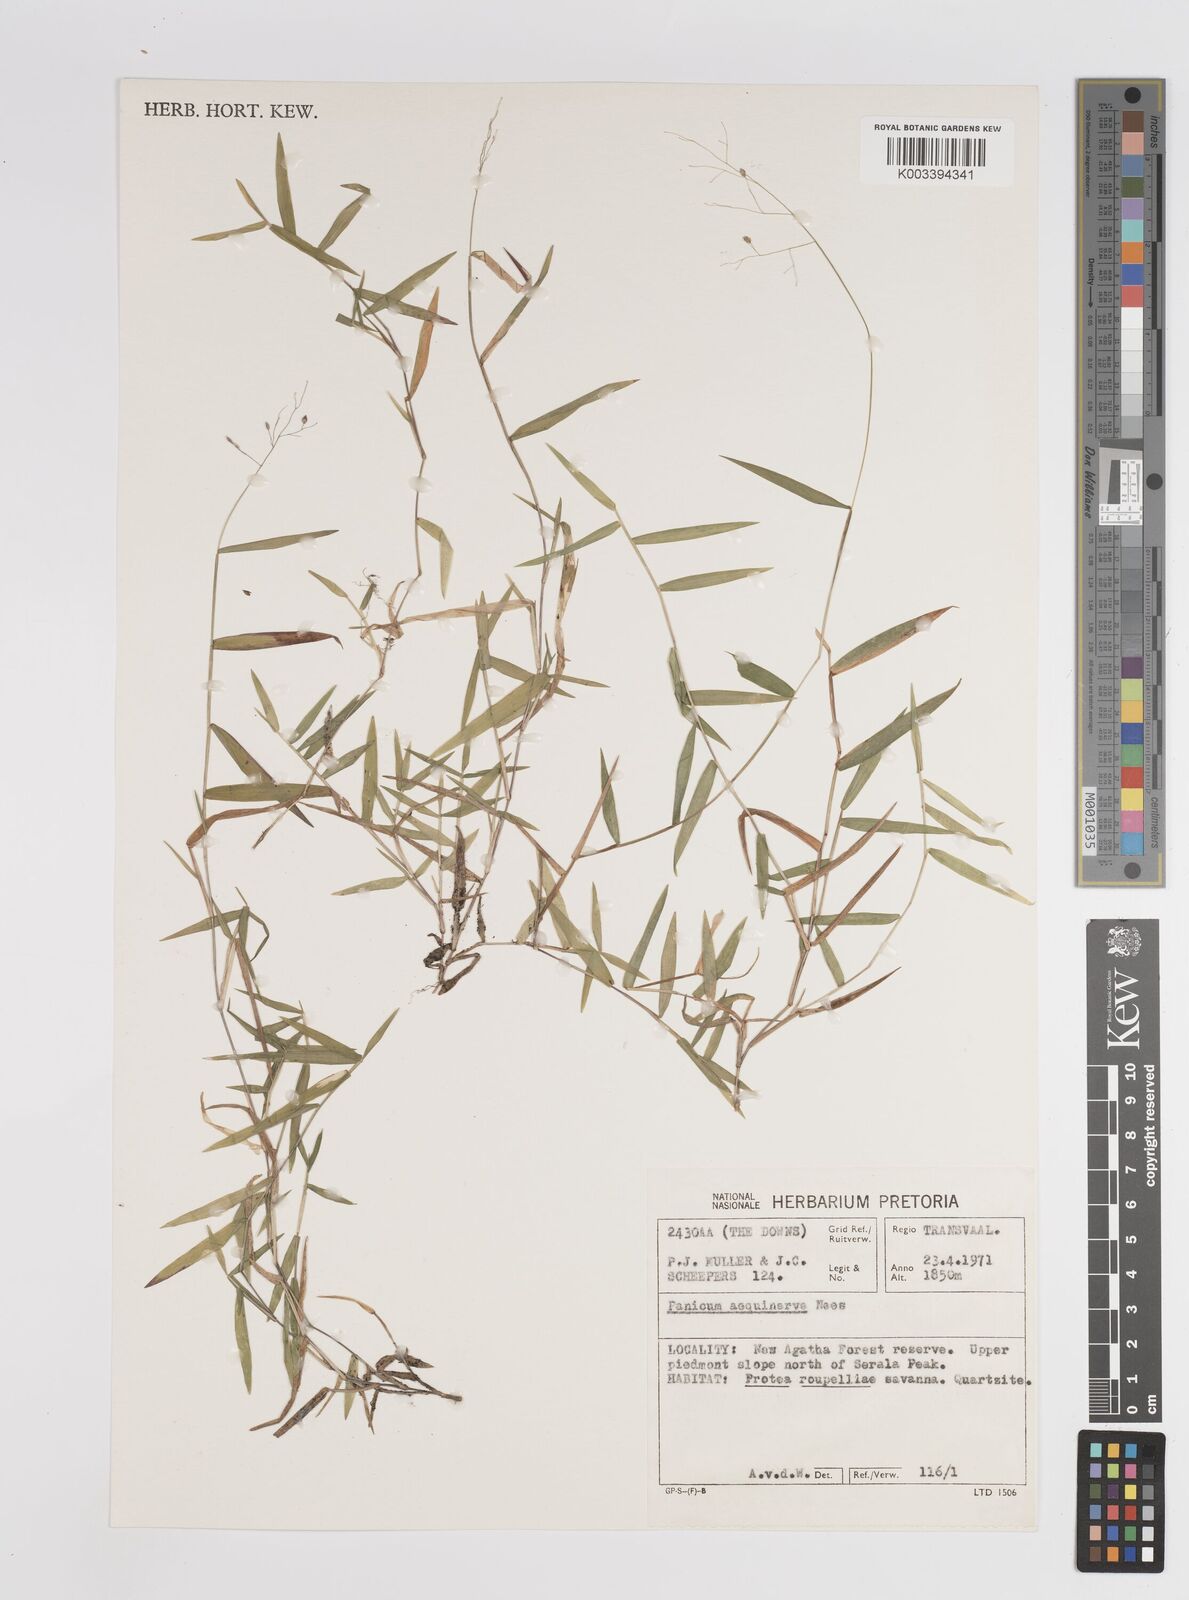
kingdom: Plantae
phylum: Tracheophyta
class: Liliopsida
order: Poales
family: Poaceae
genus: Panicum
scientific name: Panicum aequinerve
